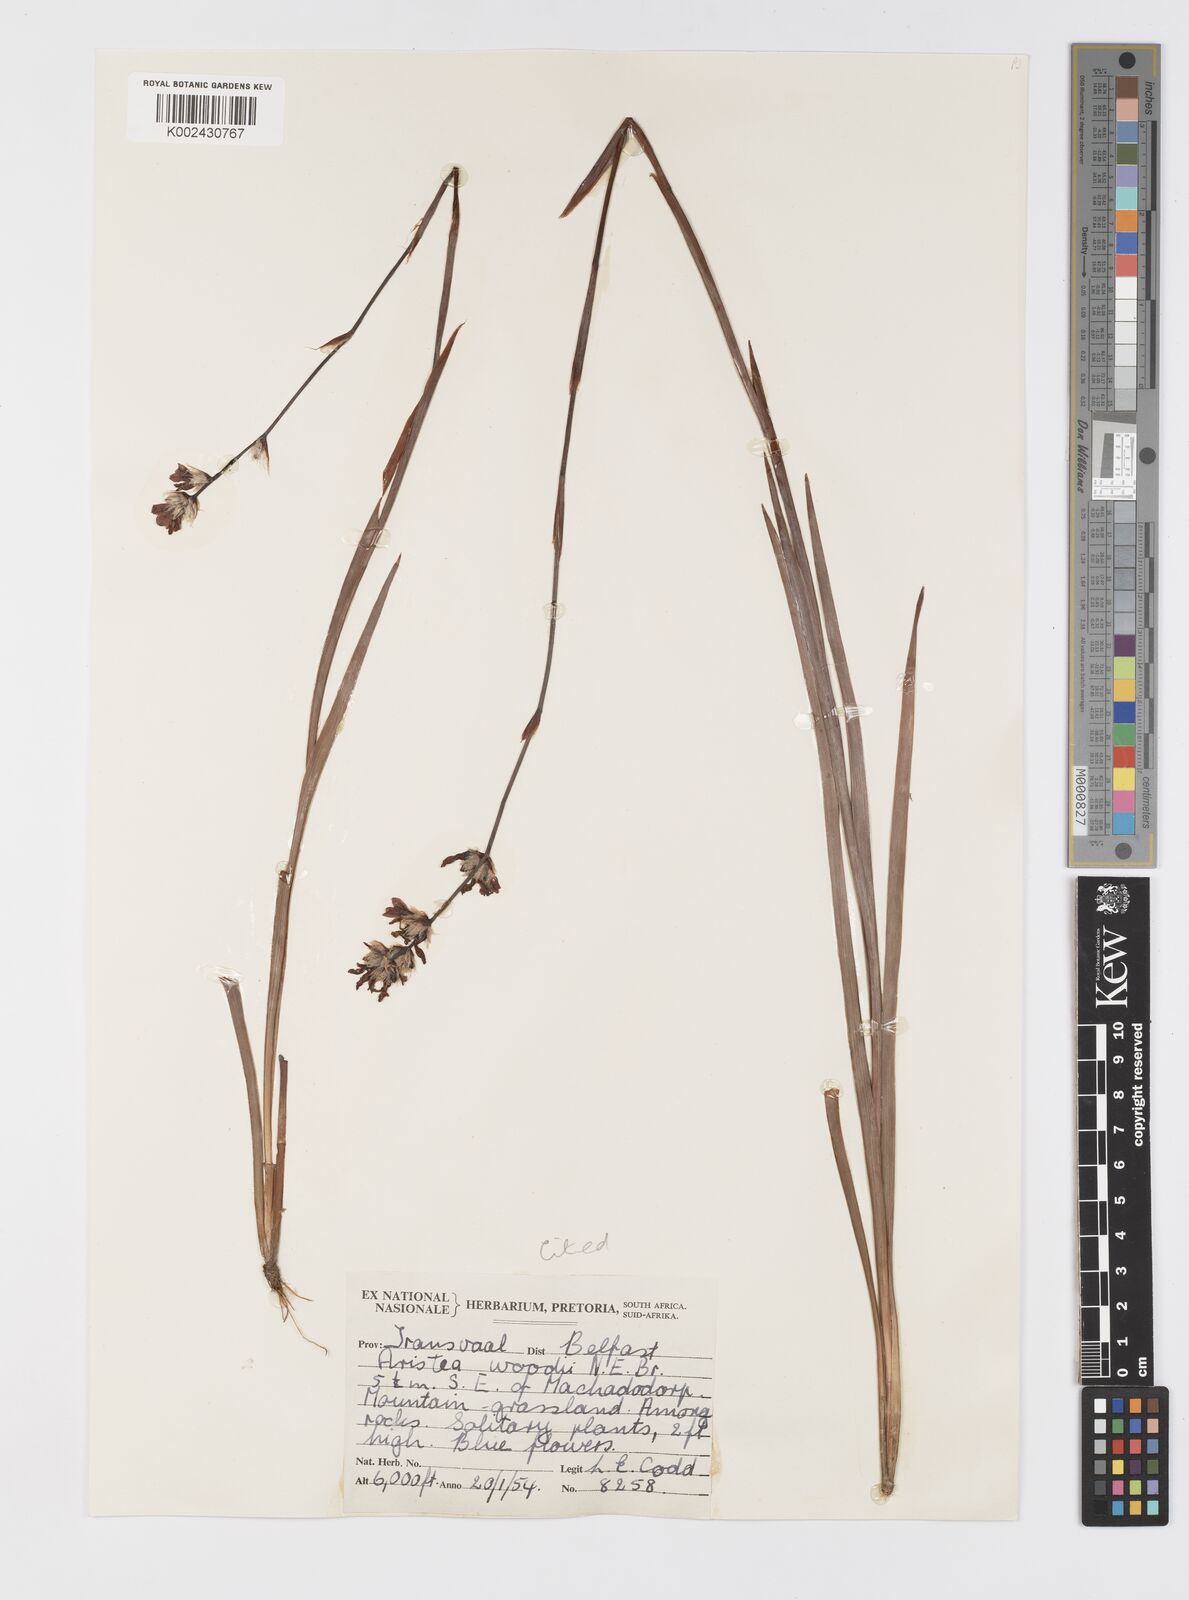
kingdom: Plantae
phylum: Tracheophyta
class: Liliopsida
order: Asparagales
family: Iridaceae
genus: Aristea
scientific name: Aristea torulosa
